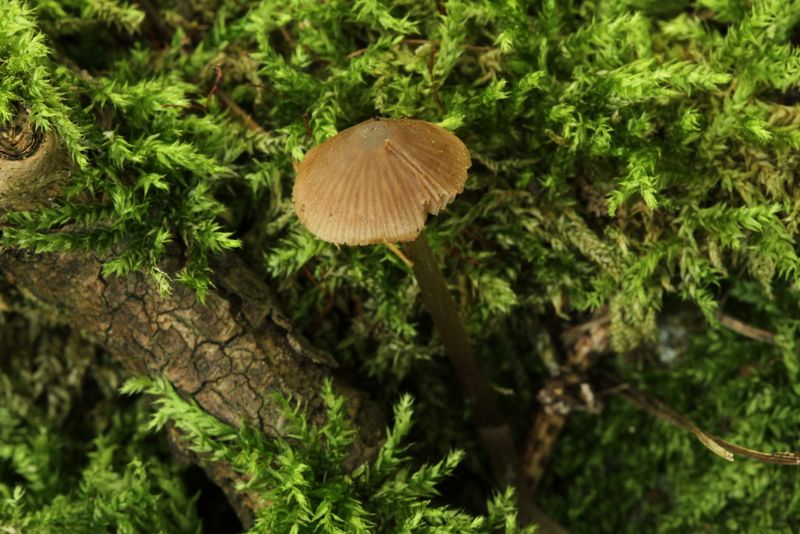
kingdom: Fungi
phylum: Basidiomycota
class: Agaricomycetes
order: Agaricales
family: Entolomataceae
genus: Entoloma
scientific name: Entoloma pallescens
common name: tidlig rødblad
